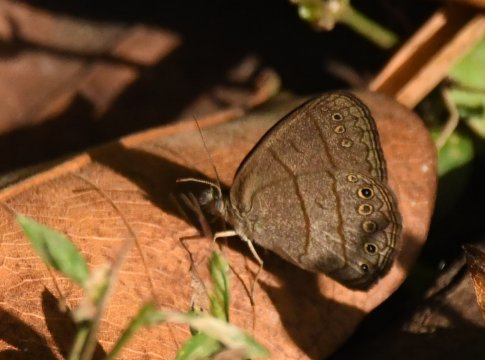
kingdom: Animalia
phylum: Arthropoda
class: Insecta
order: Lepidoptera
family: Nymphalidae
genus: Hermeuptychia
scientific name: Hermeuptychia hermes
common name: Hermes Satyr
